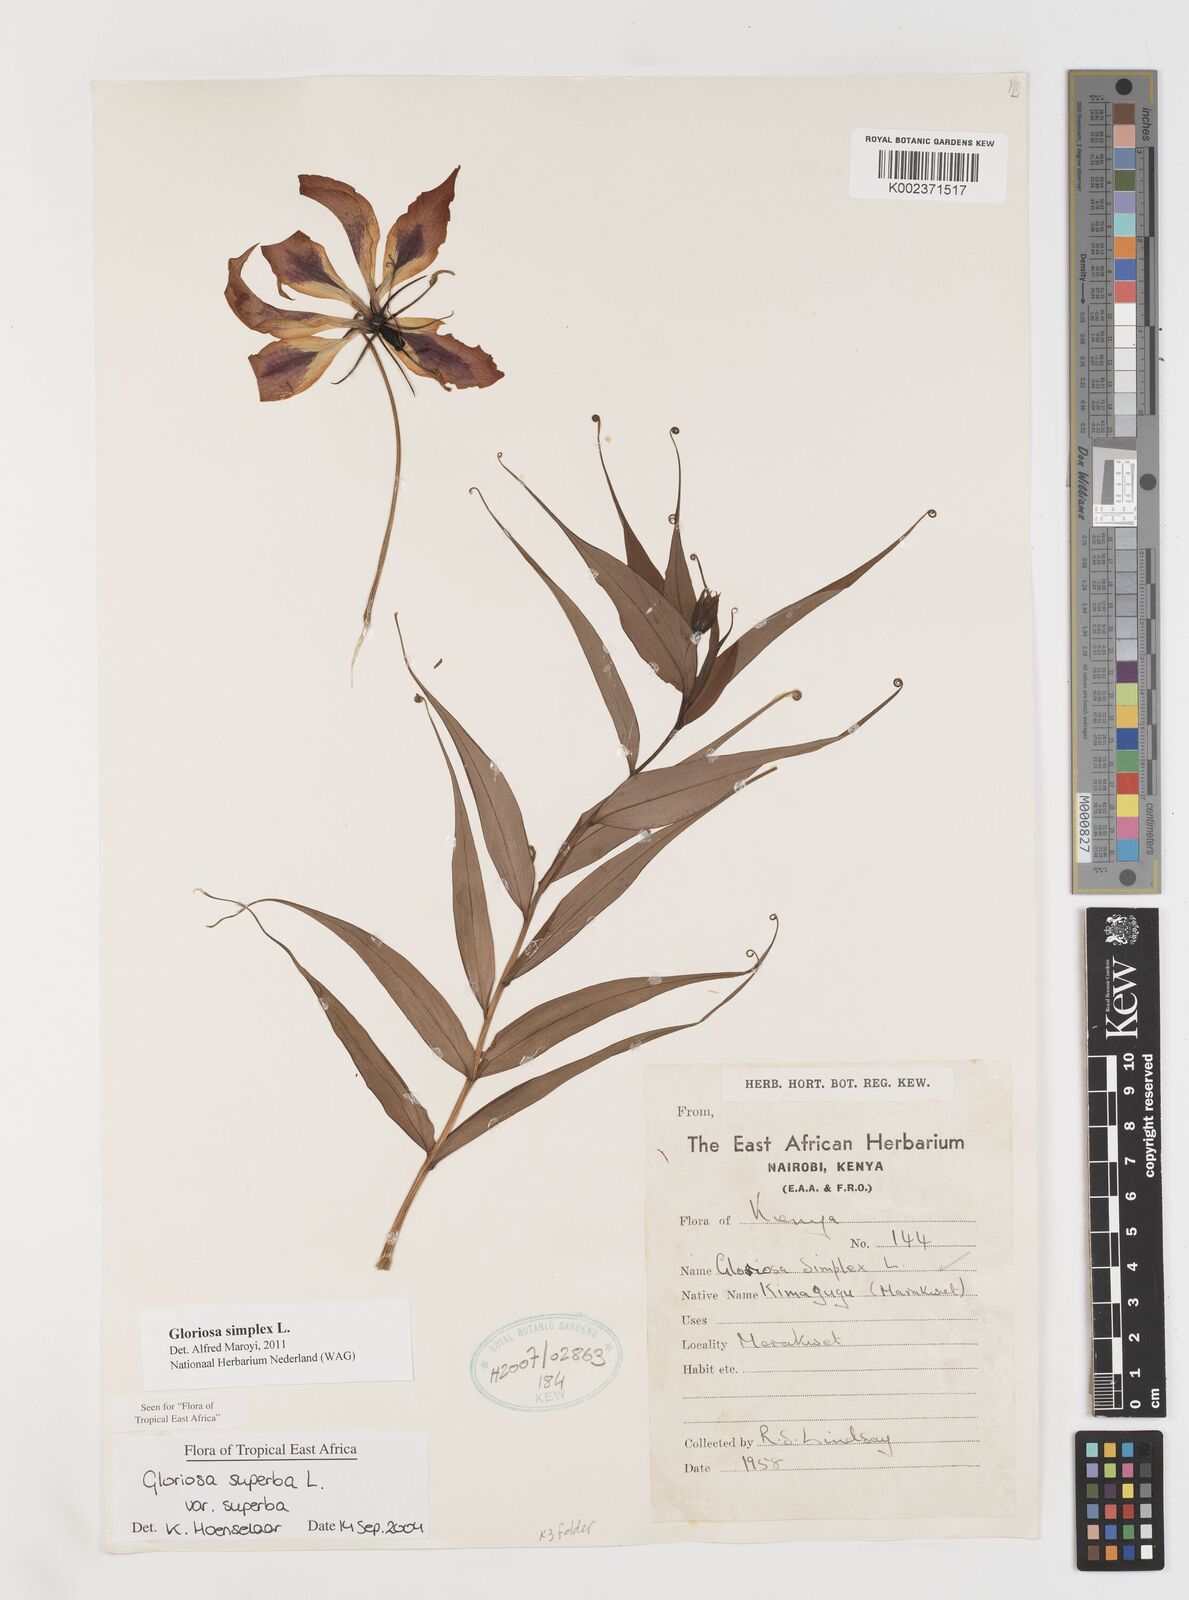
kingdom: Plantae
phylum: Tracheophyta
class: Liliopsida
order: Liliales
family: Colchicaceae
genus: Gloriosa
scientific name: Gloriosa simplex
